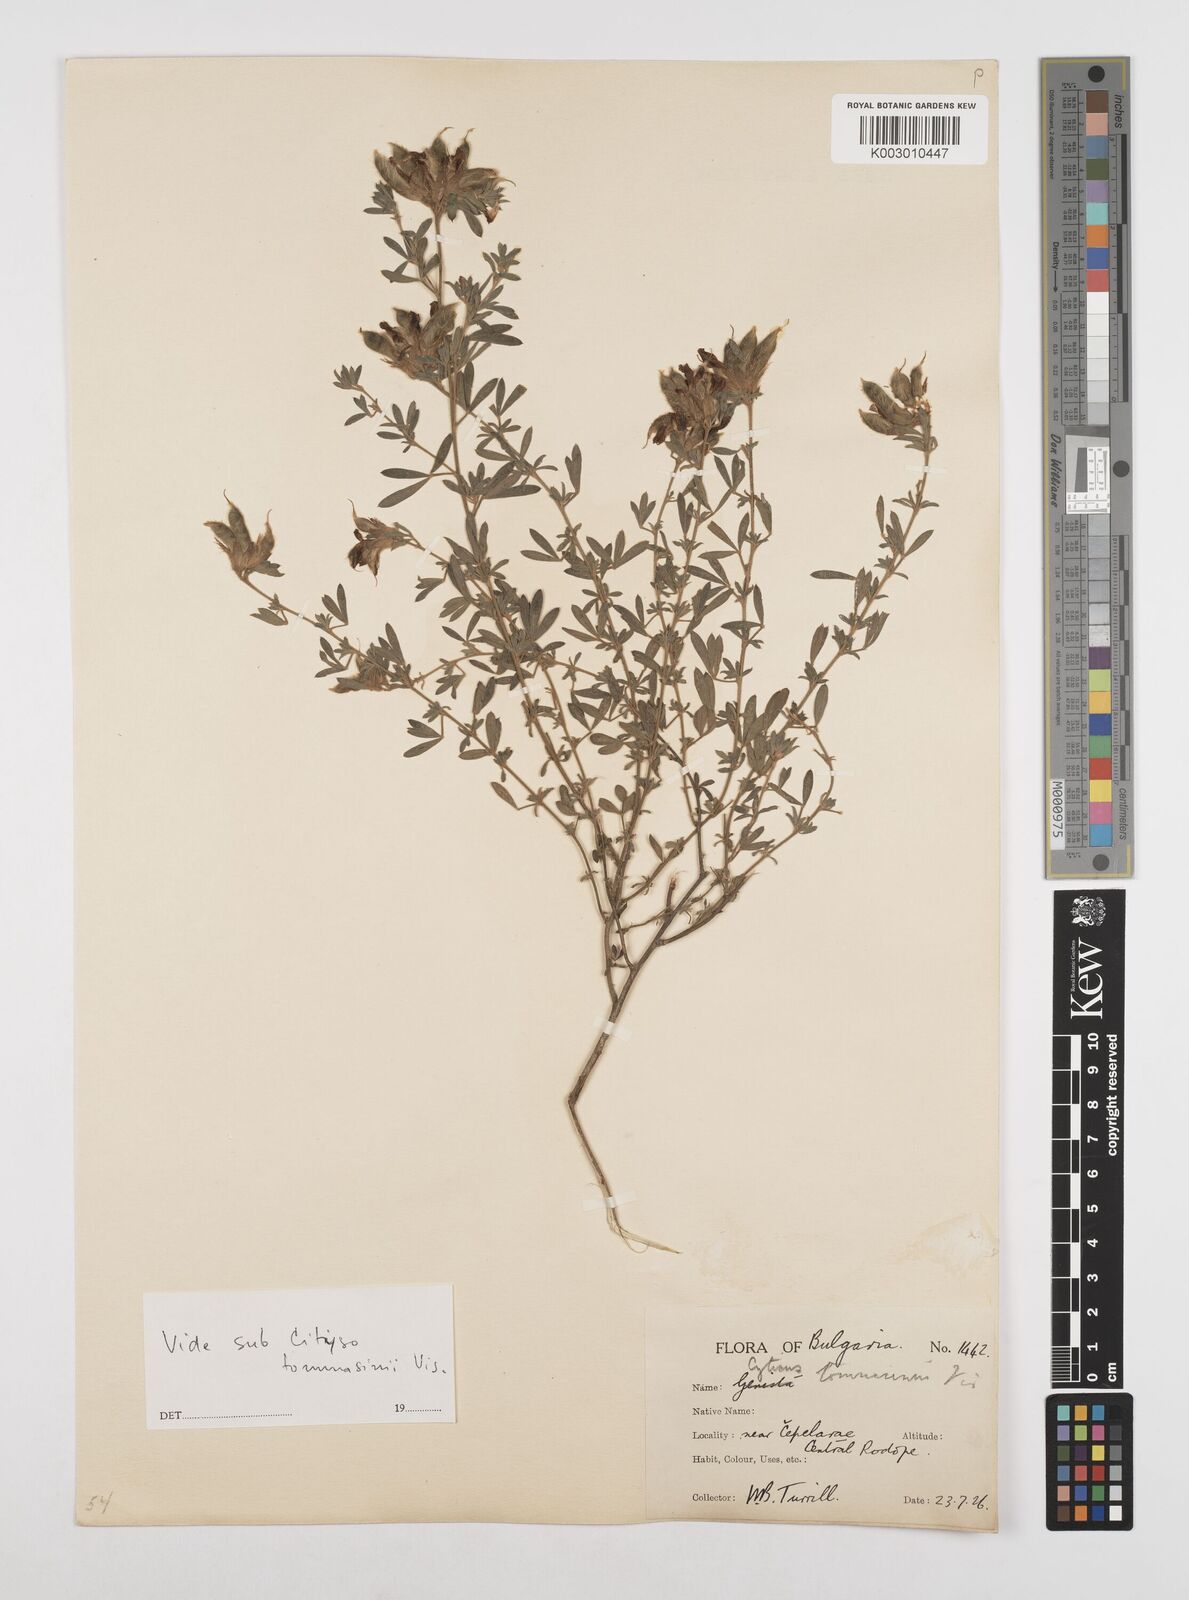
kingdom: Plantae
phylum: Tracheophyta
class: Magnoliopsida
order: Fabales
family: Fabaceae
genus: Chamaecytisus
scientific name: Chamaecytisus tommasinii
